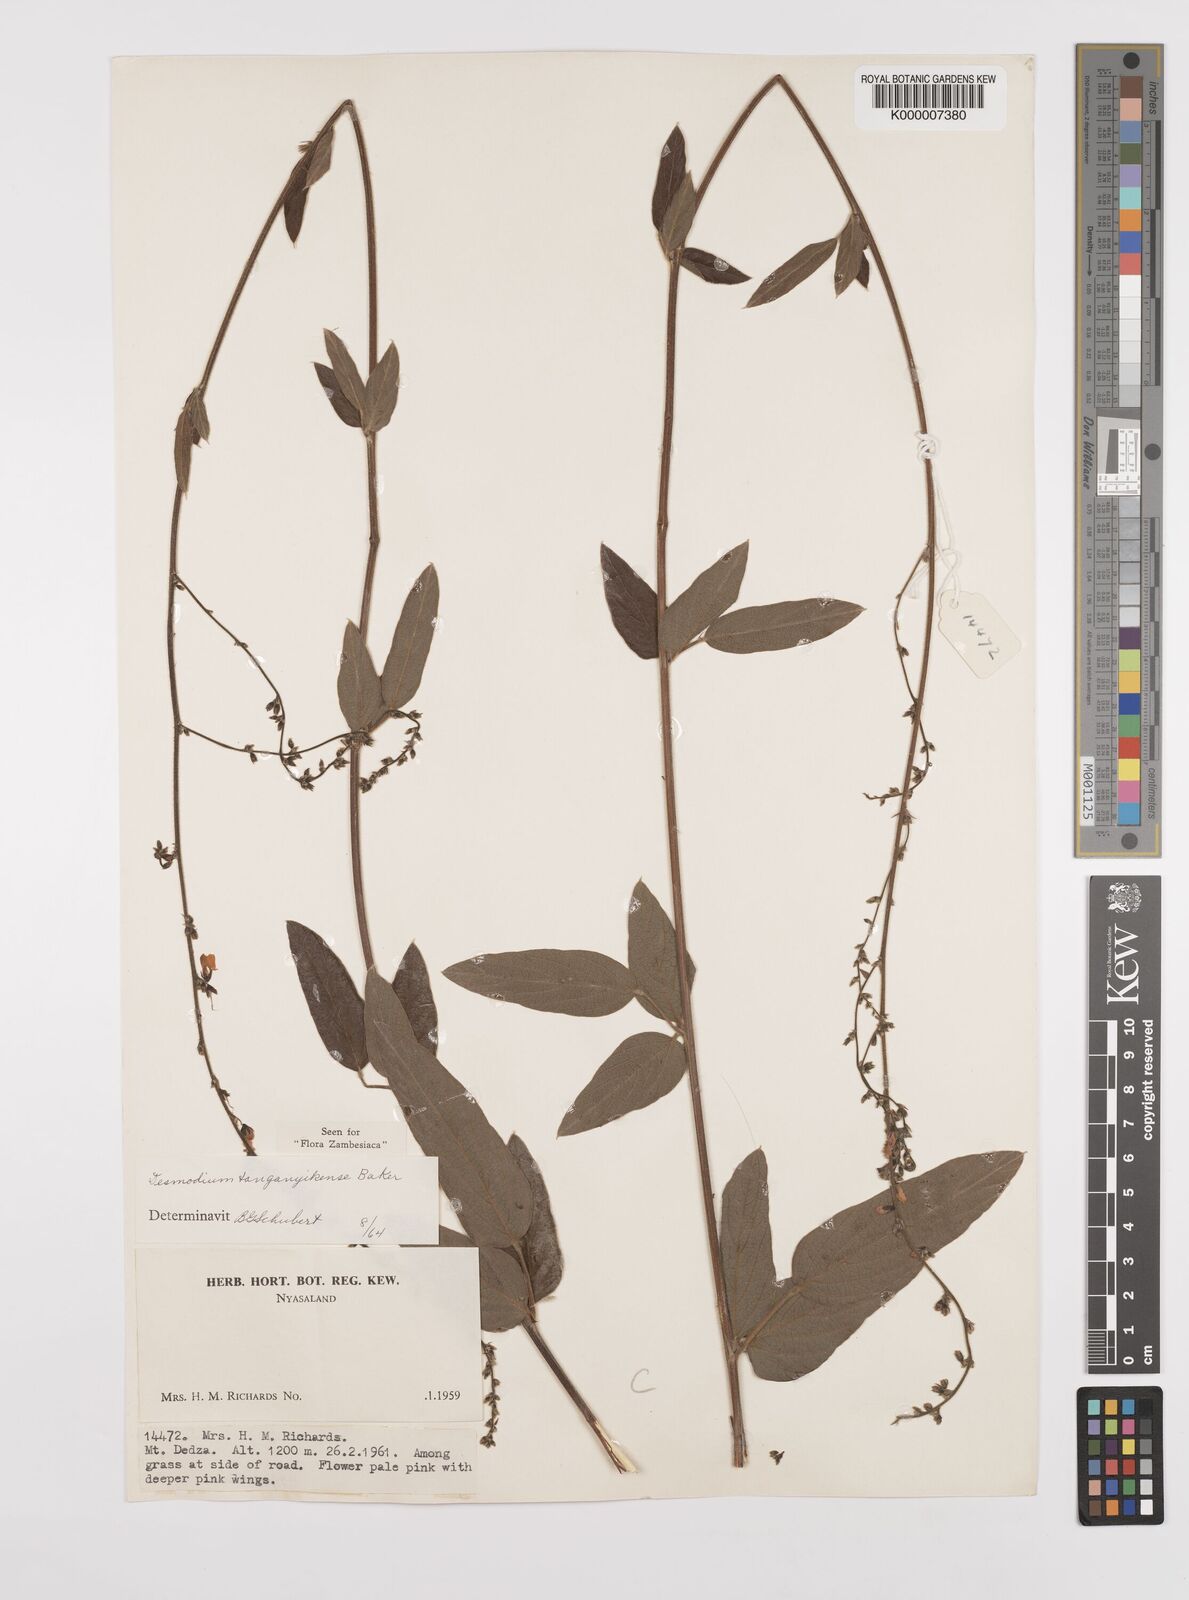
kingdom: Plantae
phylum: Tracheophyta
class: Magnoliopsida
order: Fabales
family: Fabaceae
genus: Pleurolobus
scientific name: Pleurolobus tanganyikensis
